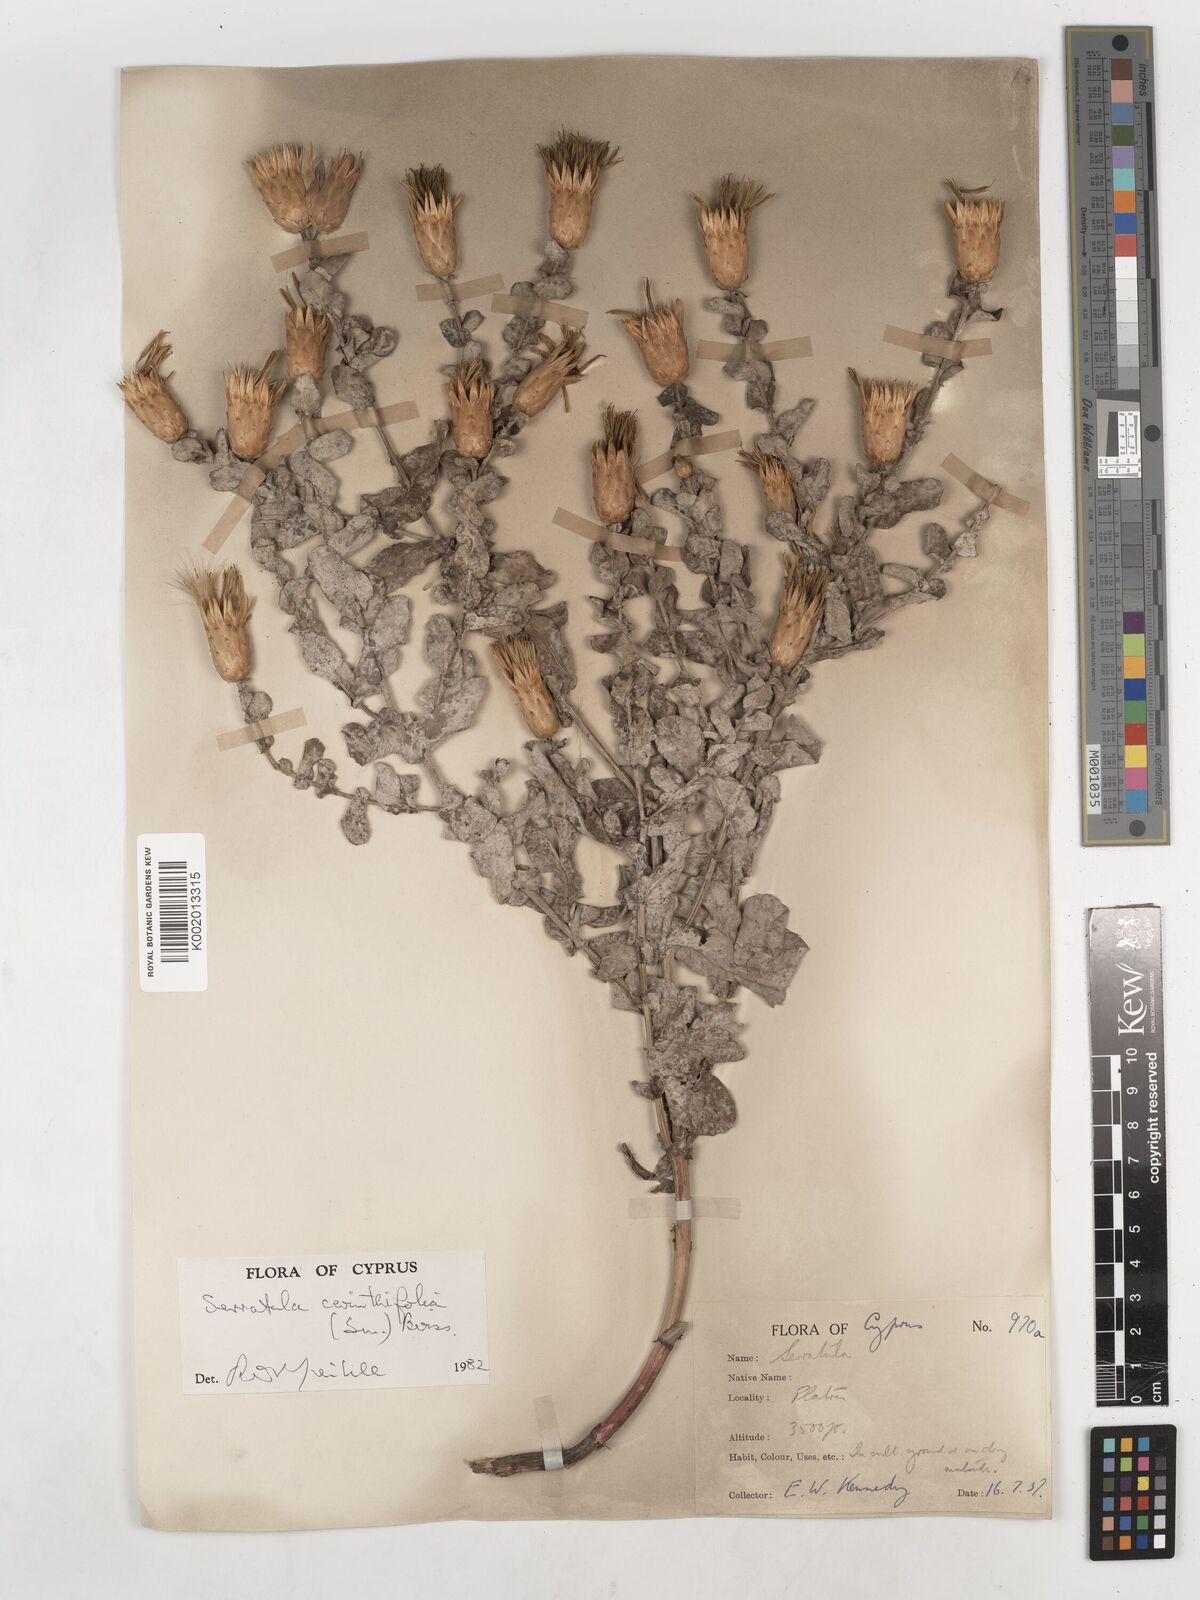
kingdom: Plantae
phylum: Tracheophyta
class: Magnoliopsida
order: Asterales
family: Asteraceae
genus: Klasea
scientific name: Klasea cerinthifolia
